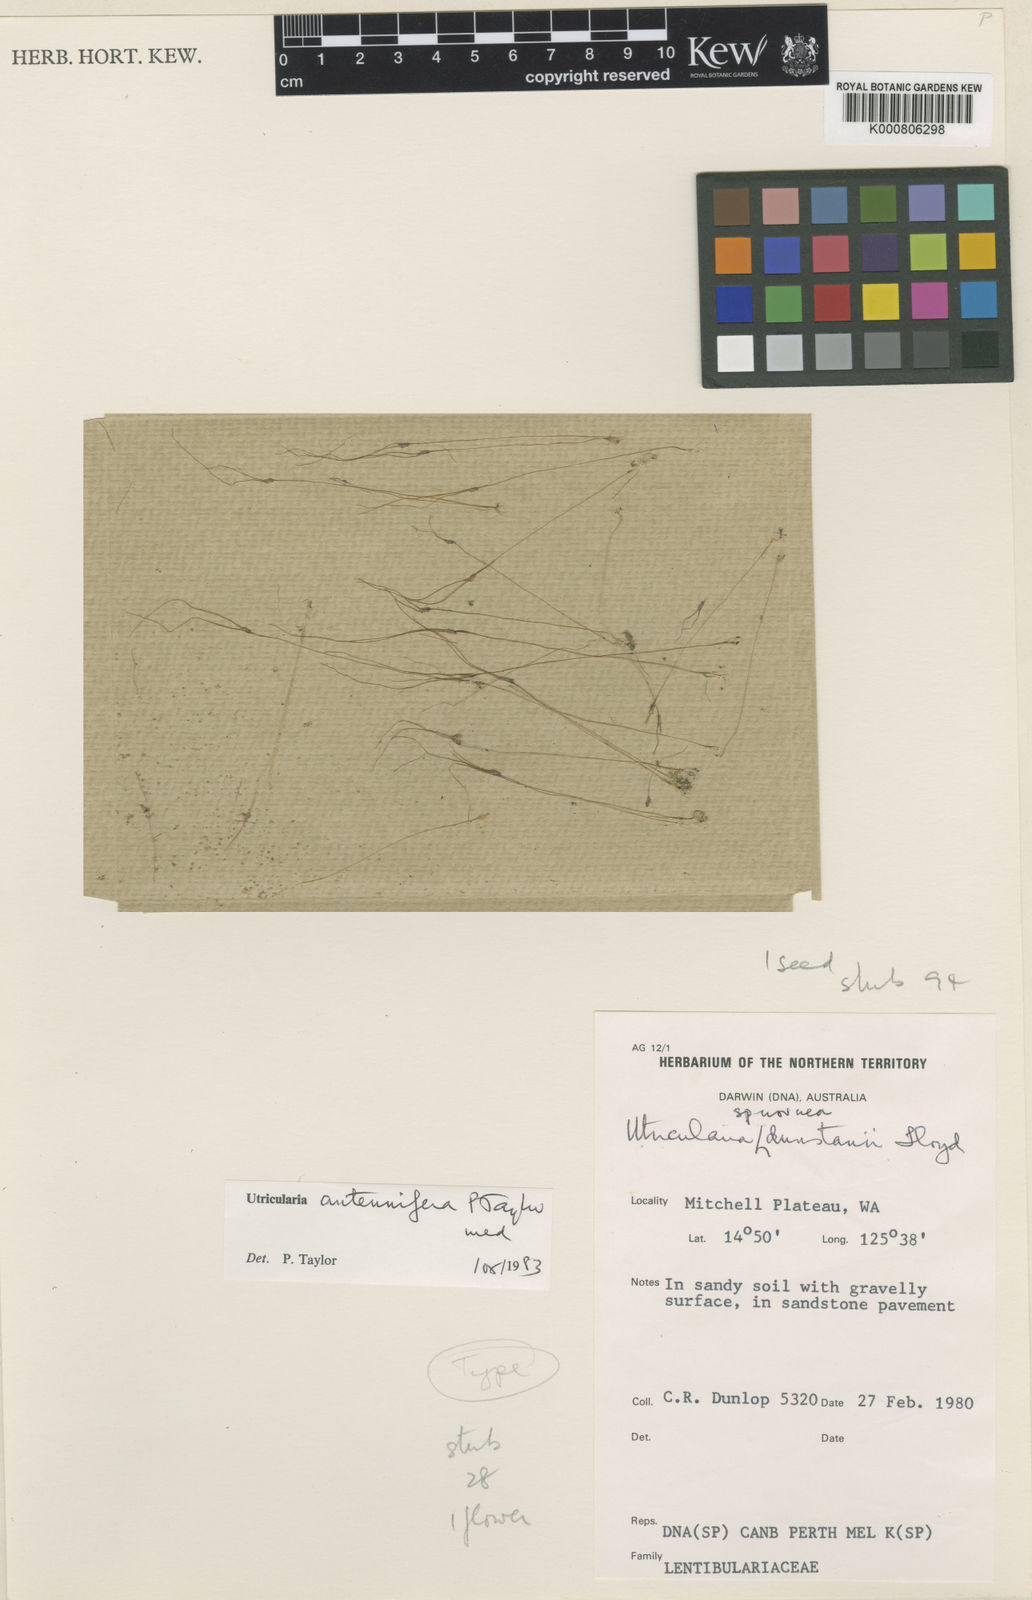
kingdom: Plantae
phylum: Tracheophyta
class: Magnoliopsida
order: Lamiales
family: Lentibulariaceae
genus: Utricularia
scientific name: Utricularia dunstaniae
